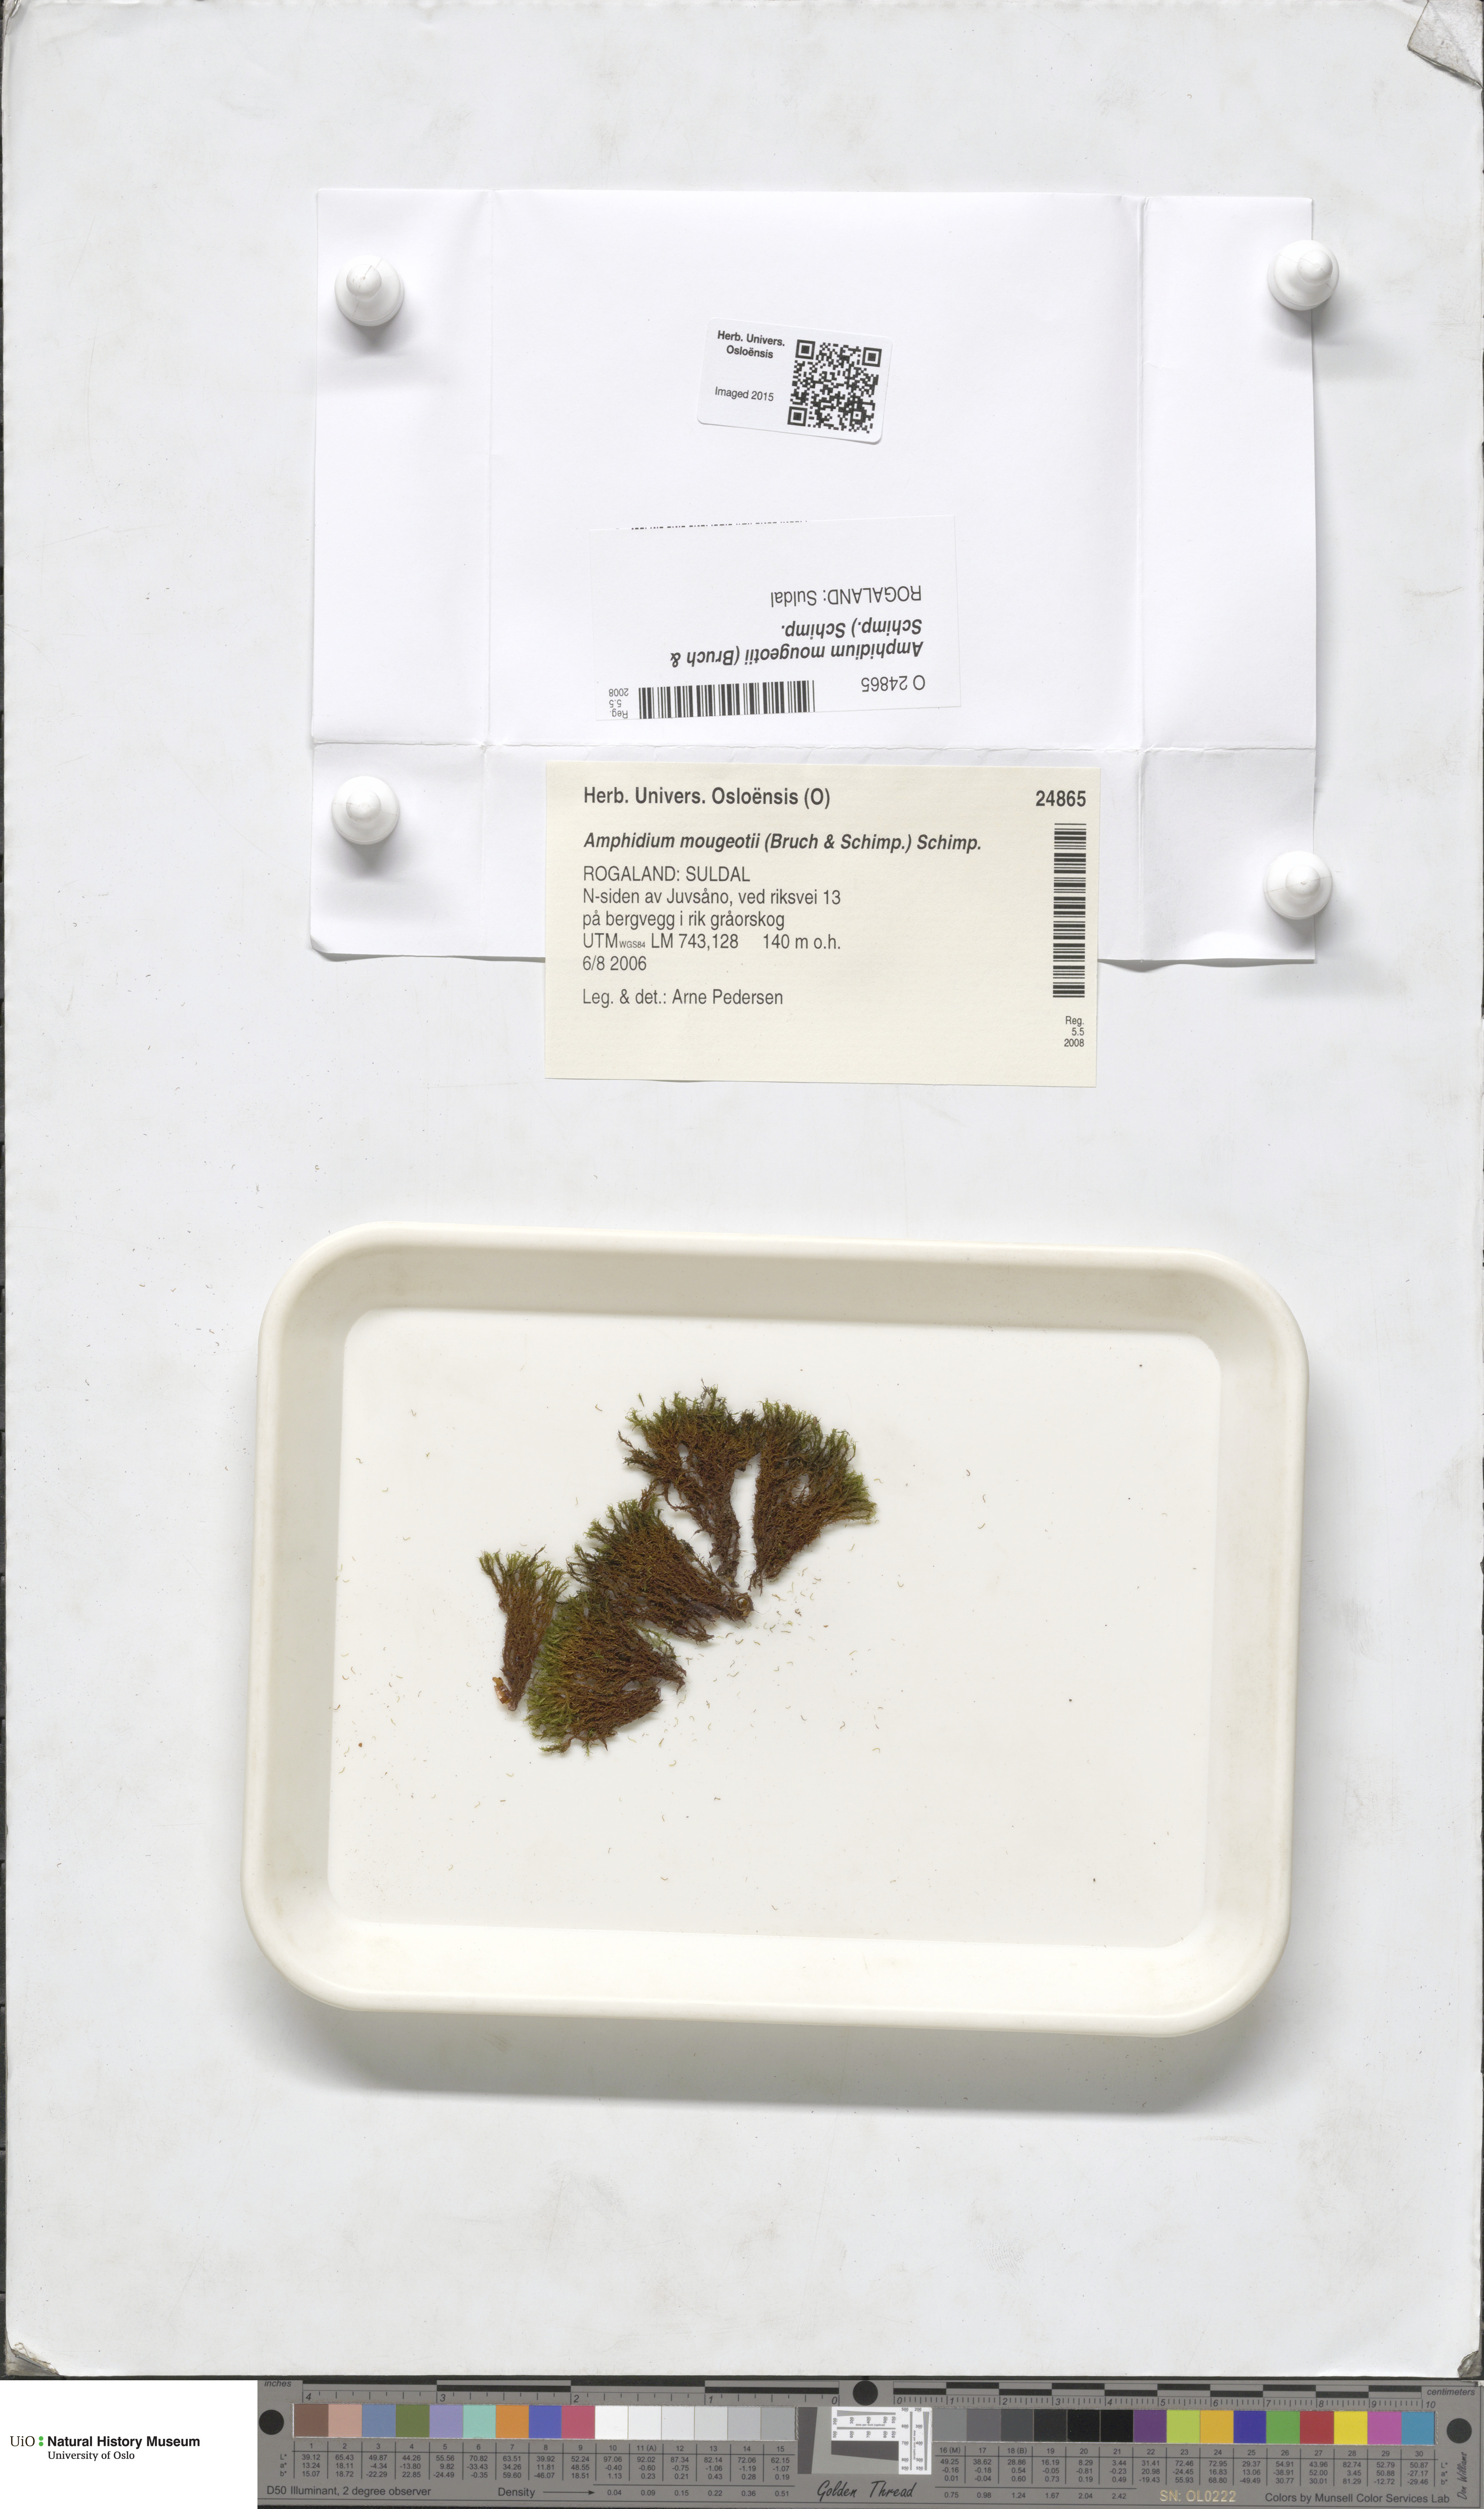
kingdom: Plantae
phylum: Bryophyta
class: Bryopsida
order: Dicranales
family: Amphidiaceae
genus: Amphidium
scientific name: Amphidium mougeotii
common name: Mougeot's yoke moss
